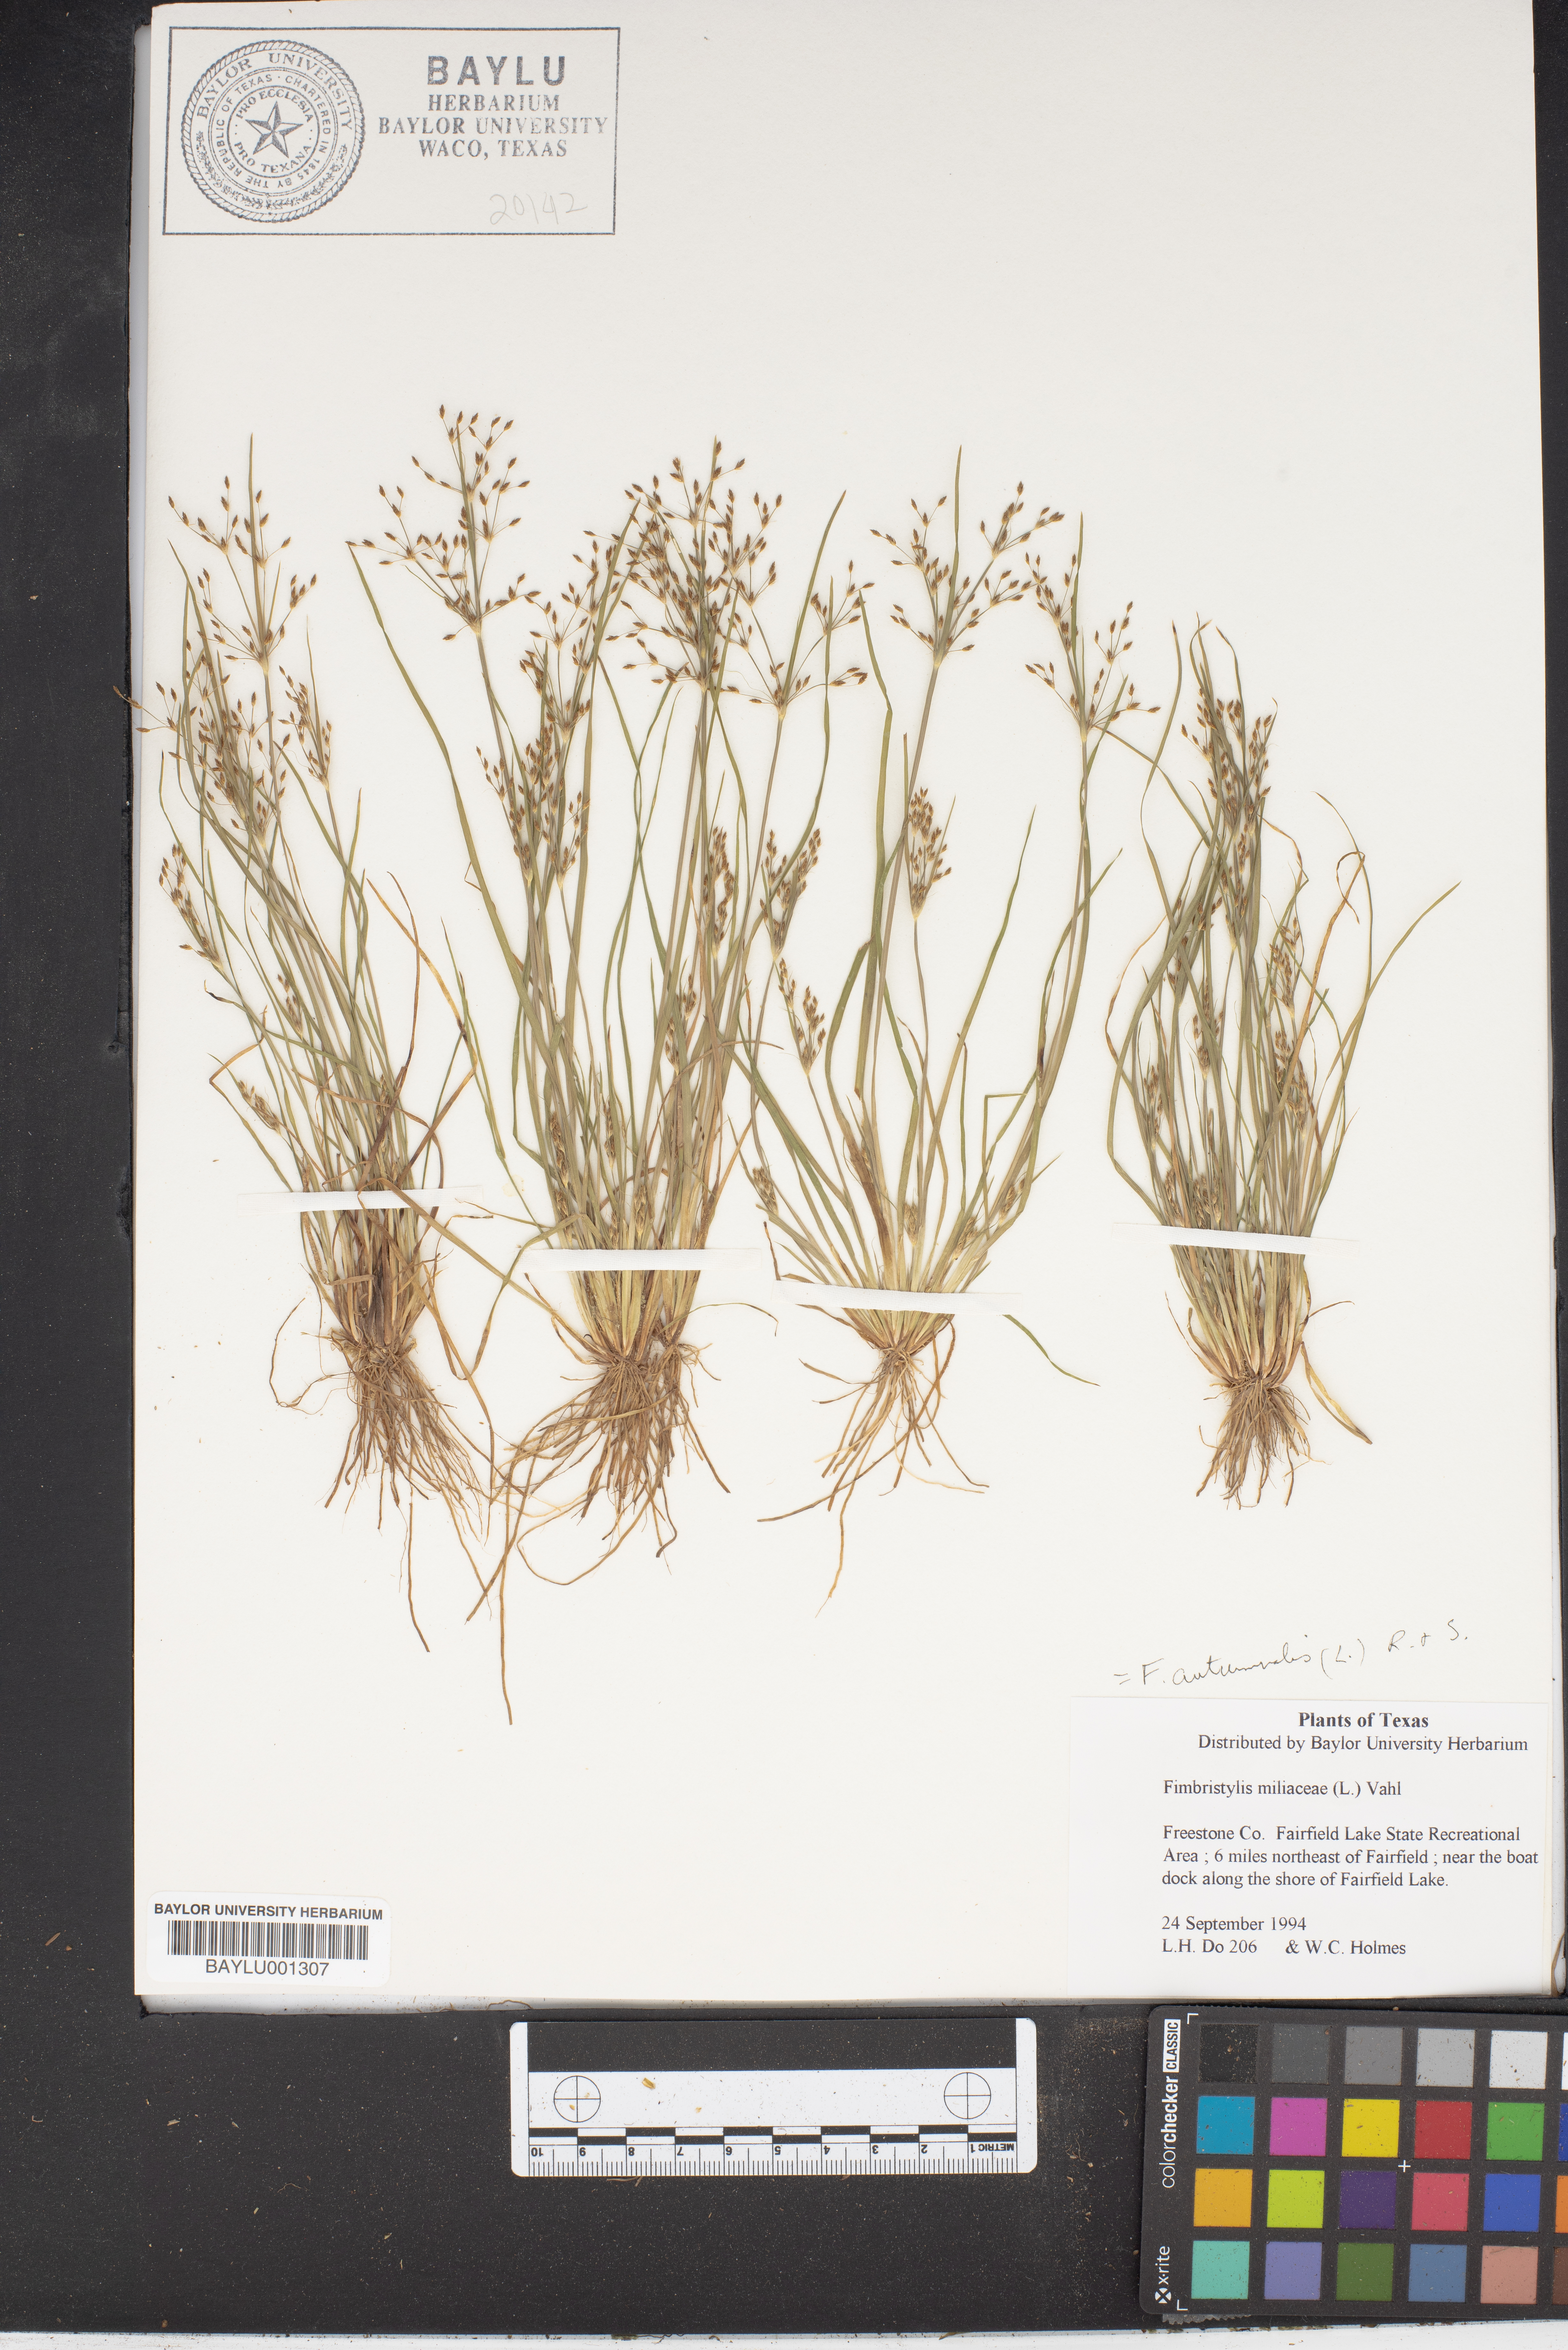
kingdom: Plantae
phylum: Tracheophyta
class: Liliopsida
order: Poales
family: Cyperaceae
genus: Fimbristylis
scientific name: Fimbristylis quinquangularis
